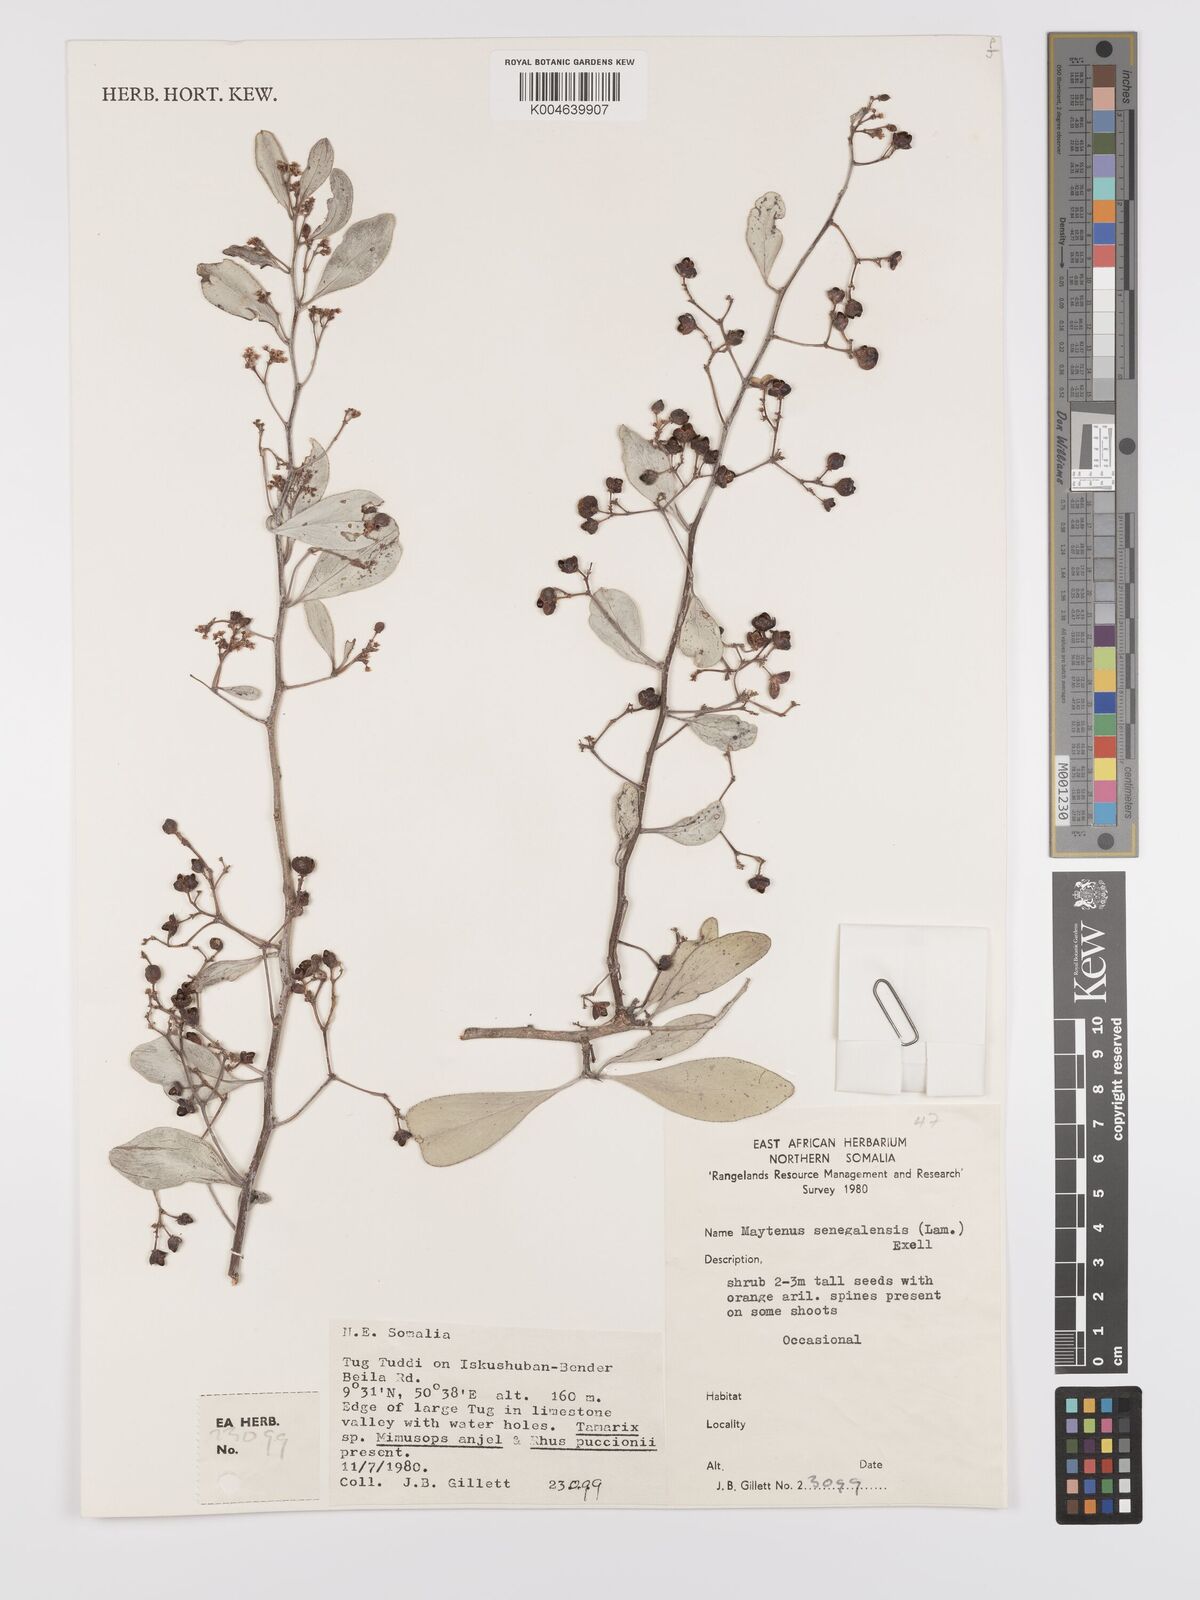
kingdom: Plantae
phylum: Tracheophyta
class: Magnoliopsida
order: Celastrales
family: Celastraceae
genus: Gymnosporia
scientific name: Gymnosporia senegalensis
